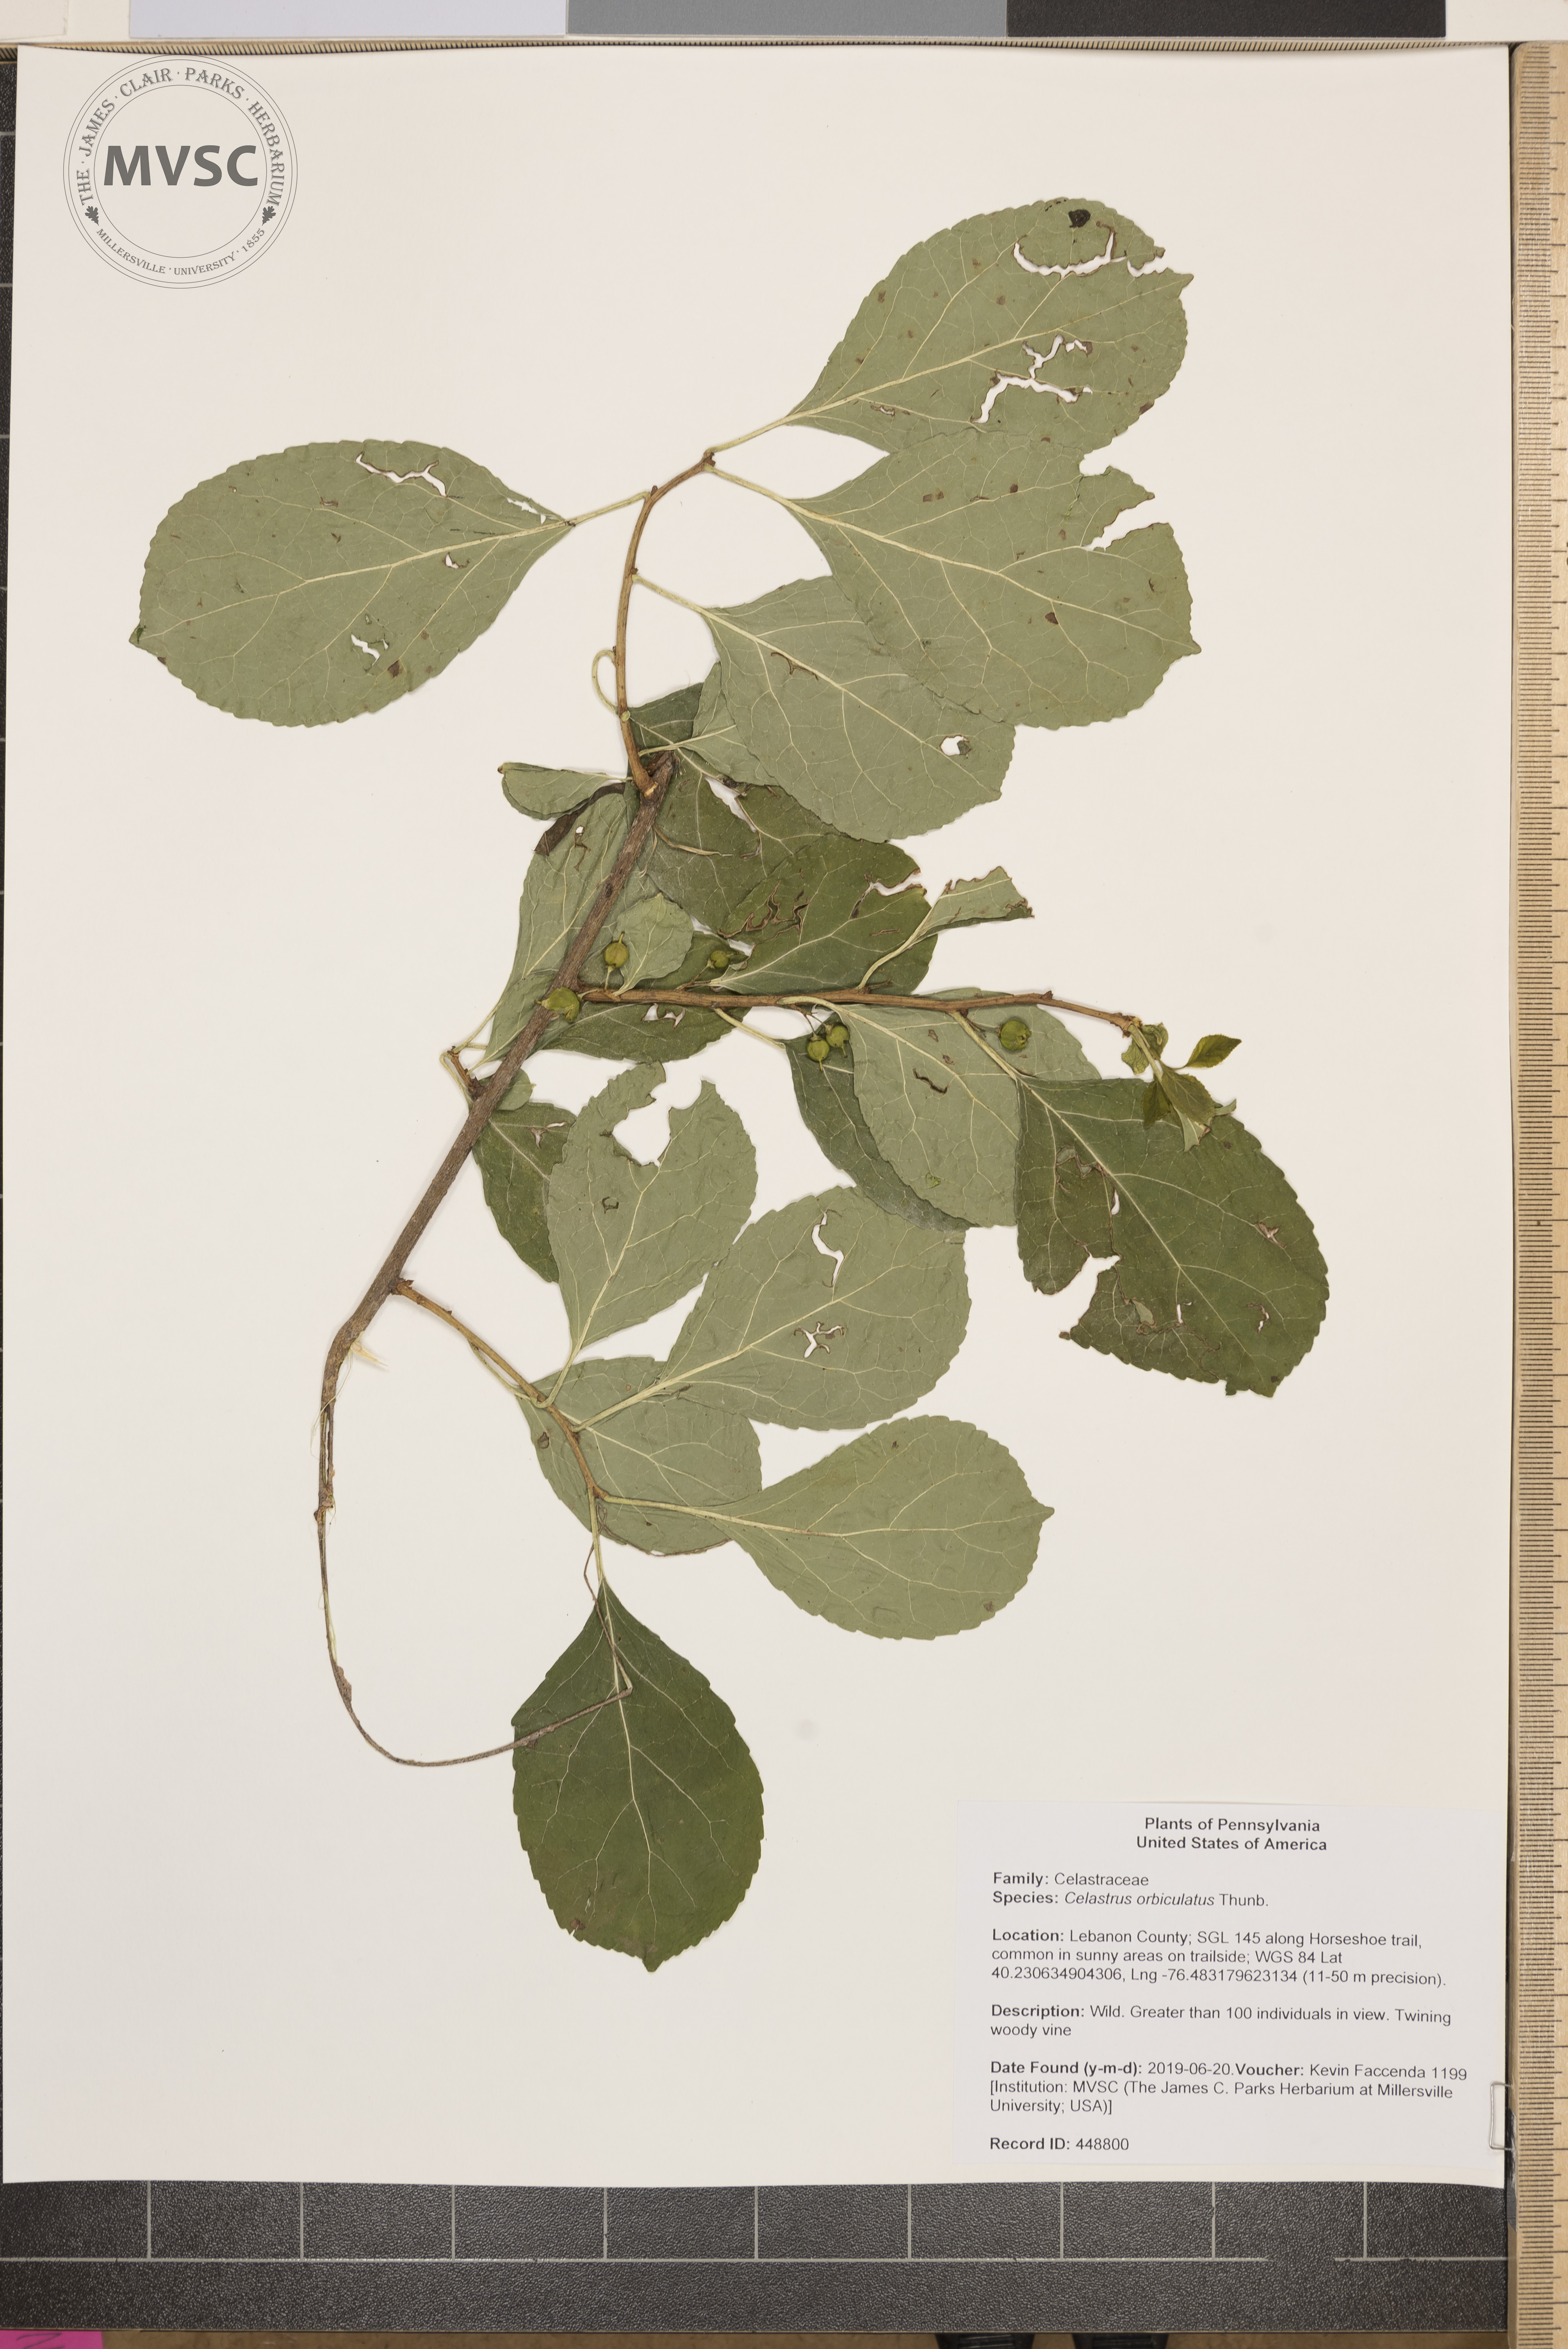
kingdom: Plantae
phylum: Tracheophyta
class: Magnoliopsida
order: Celastrales
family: Celastraceae
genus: Celastrus
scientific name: Celastrus orbiculatus
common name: Oriental bittersweet
